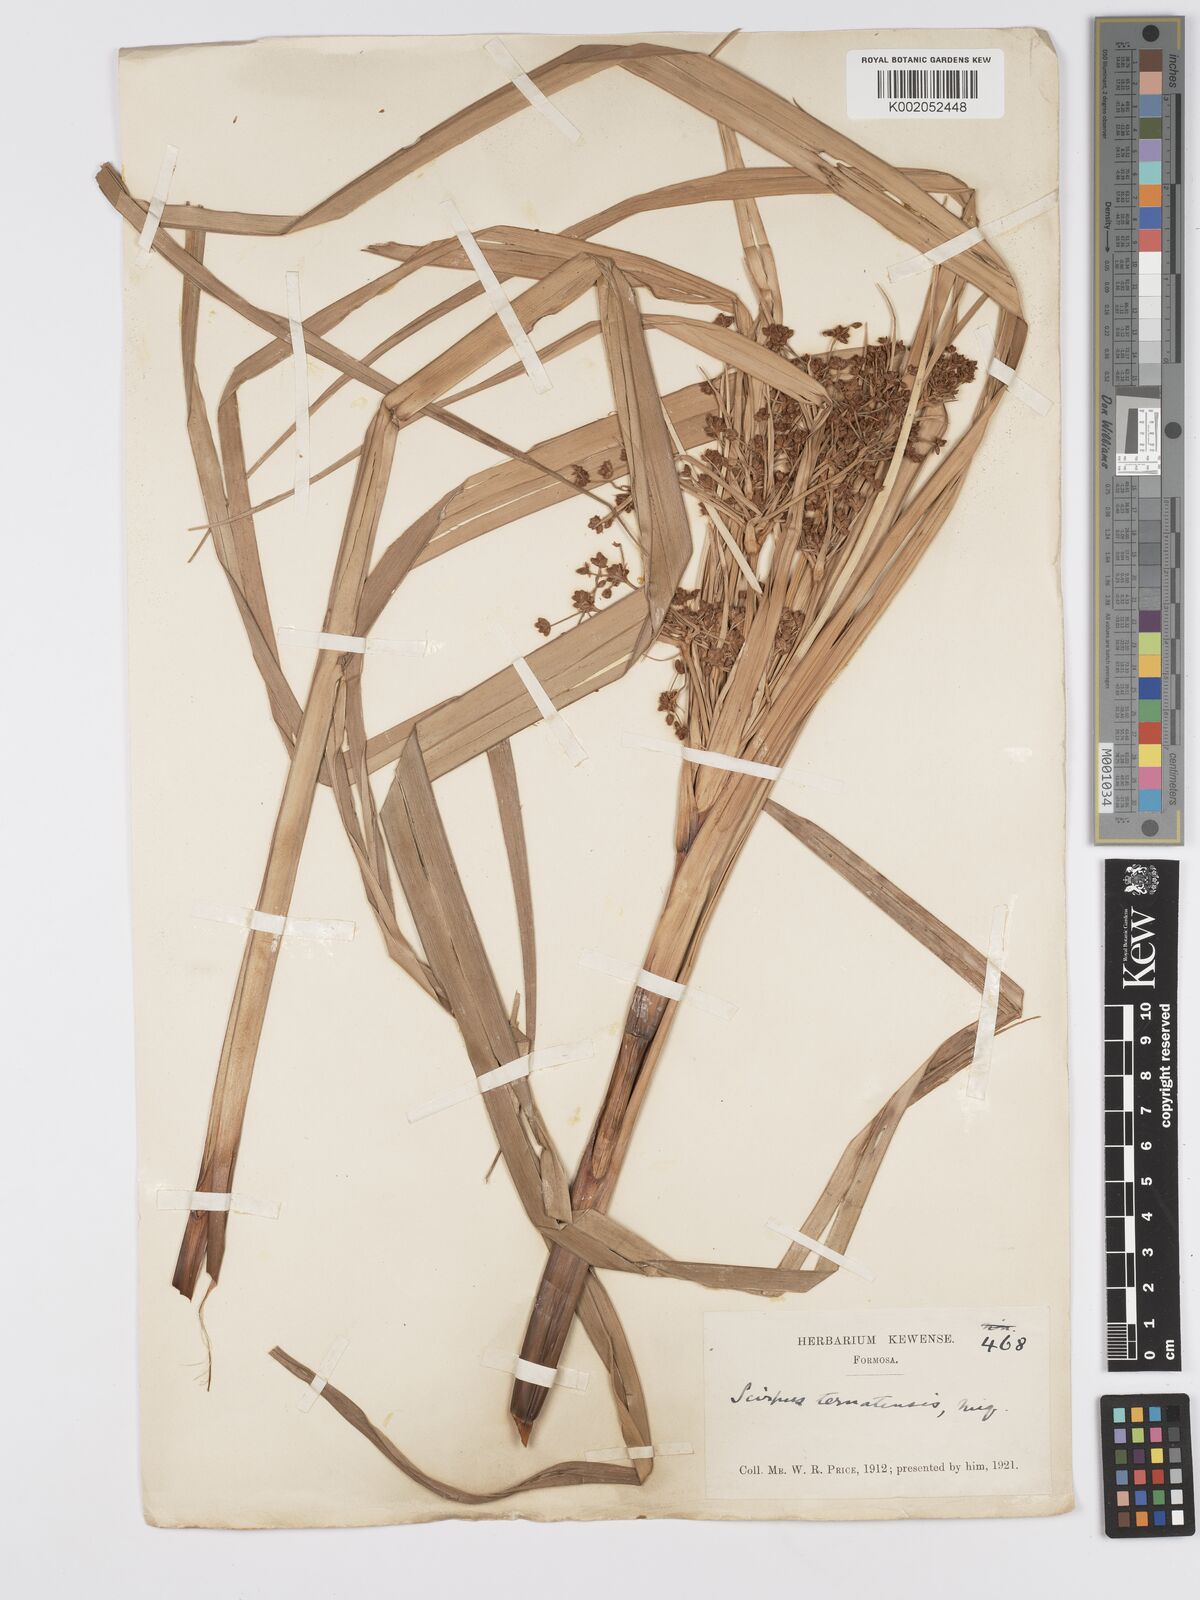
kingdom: Plantae
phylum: Tracheophyta
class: Liliopsida
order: Poales
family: Cyperaceae
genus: Scirpus
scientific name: Scirpus ternatanus
